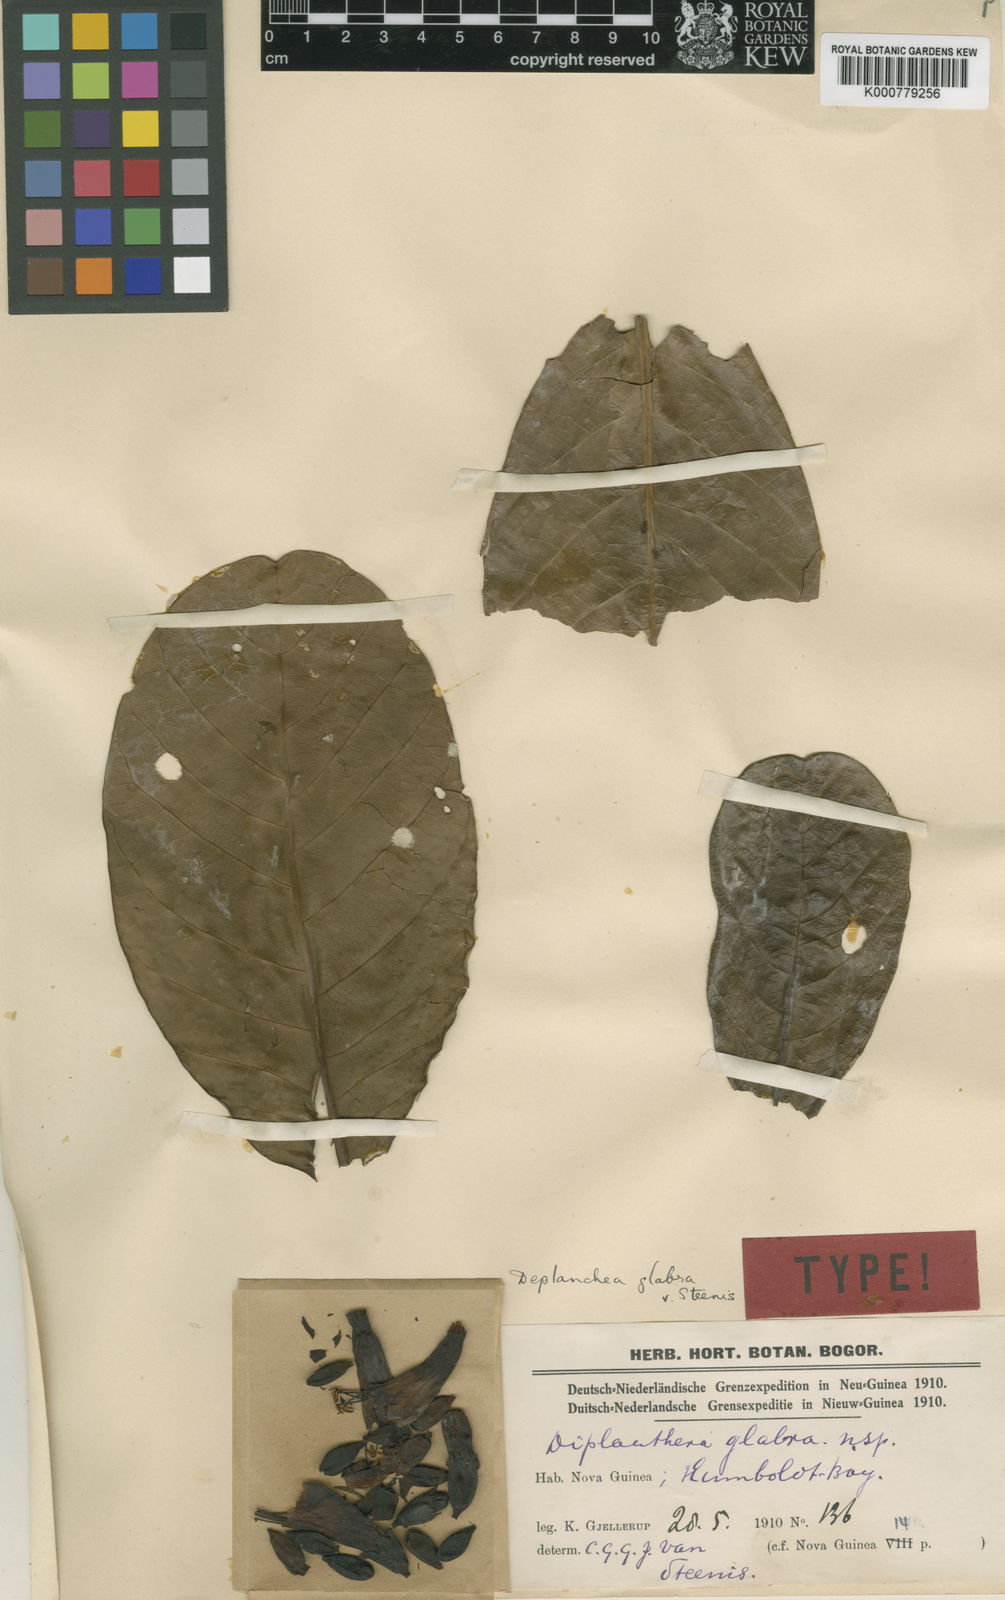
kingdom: Plantae
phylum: Tracheophyta
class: Magnoliopsida
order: Lamiales
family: Bignoniaceae
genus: Deplanchea
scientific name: Deplanchea glabra
